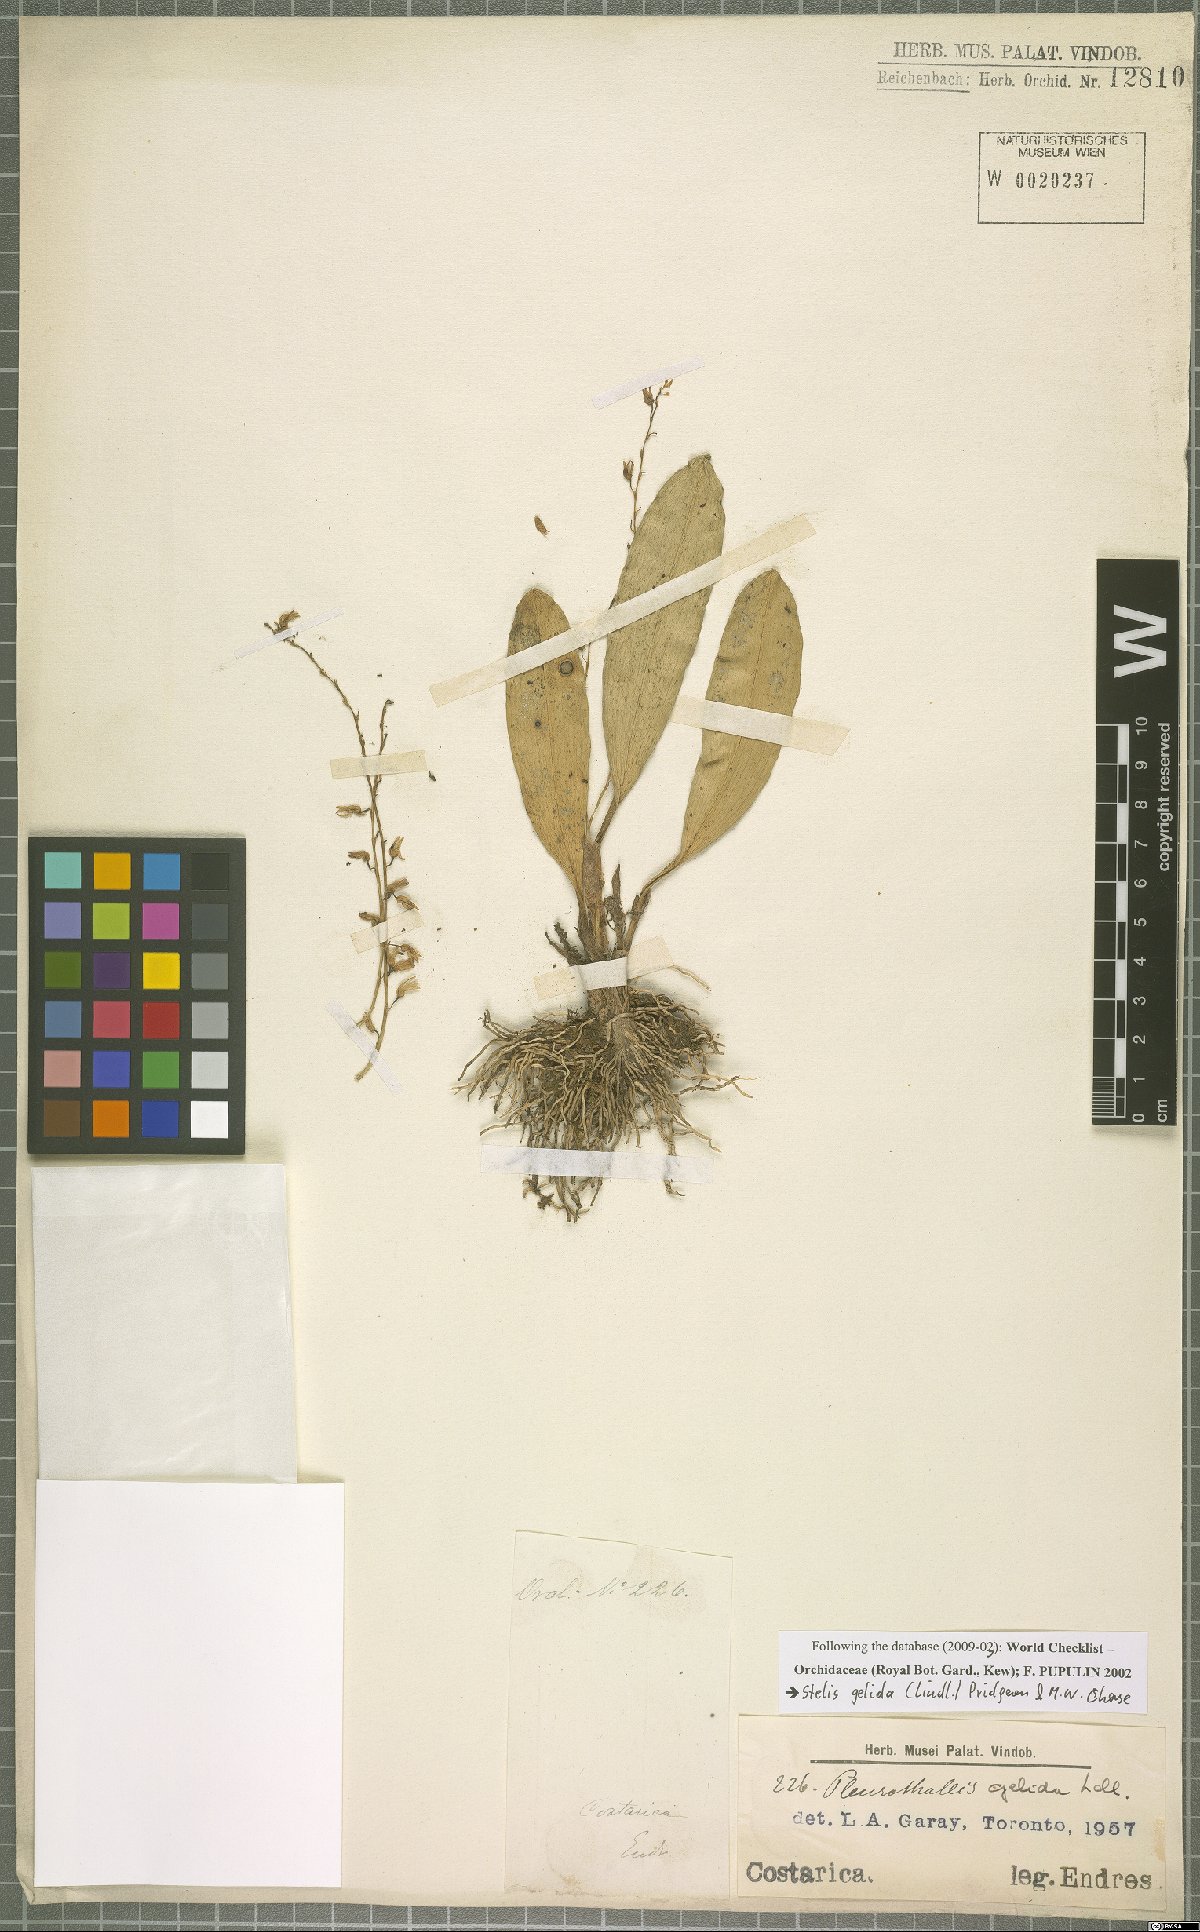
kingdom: Plantae
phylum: Tracheophyta
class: Liliopsida
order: Asparagales
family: Orchidaceae
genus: Stelis
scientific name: Stelis gelida
